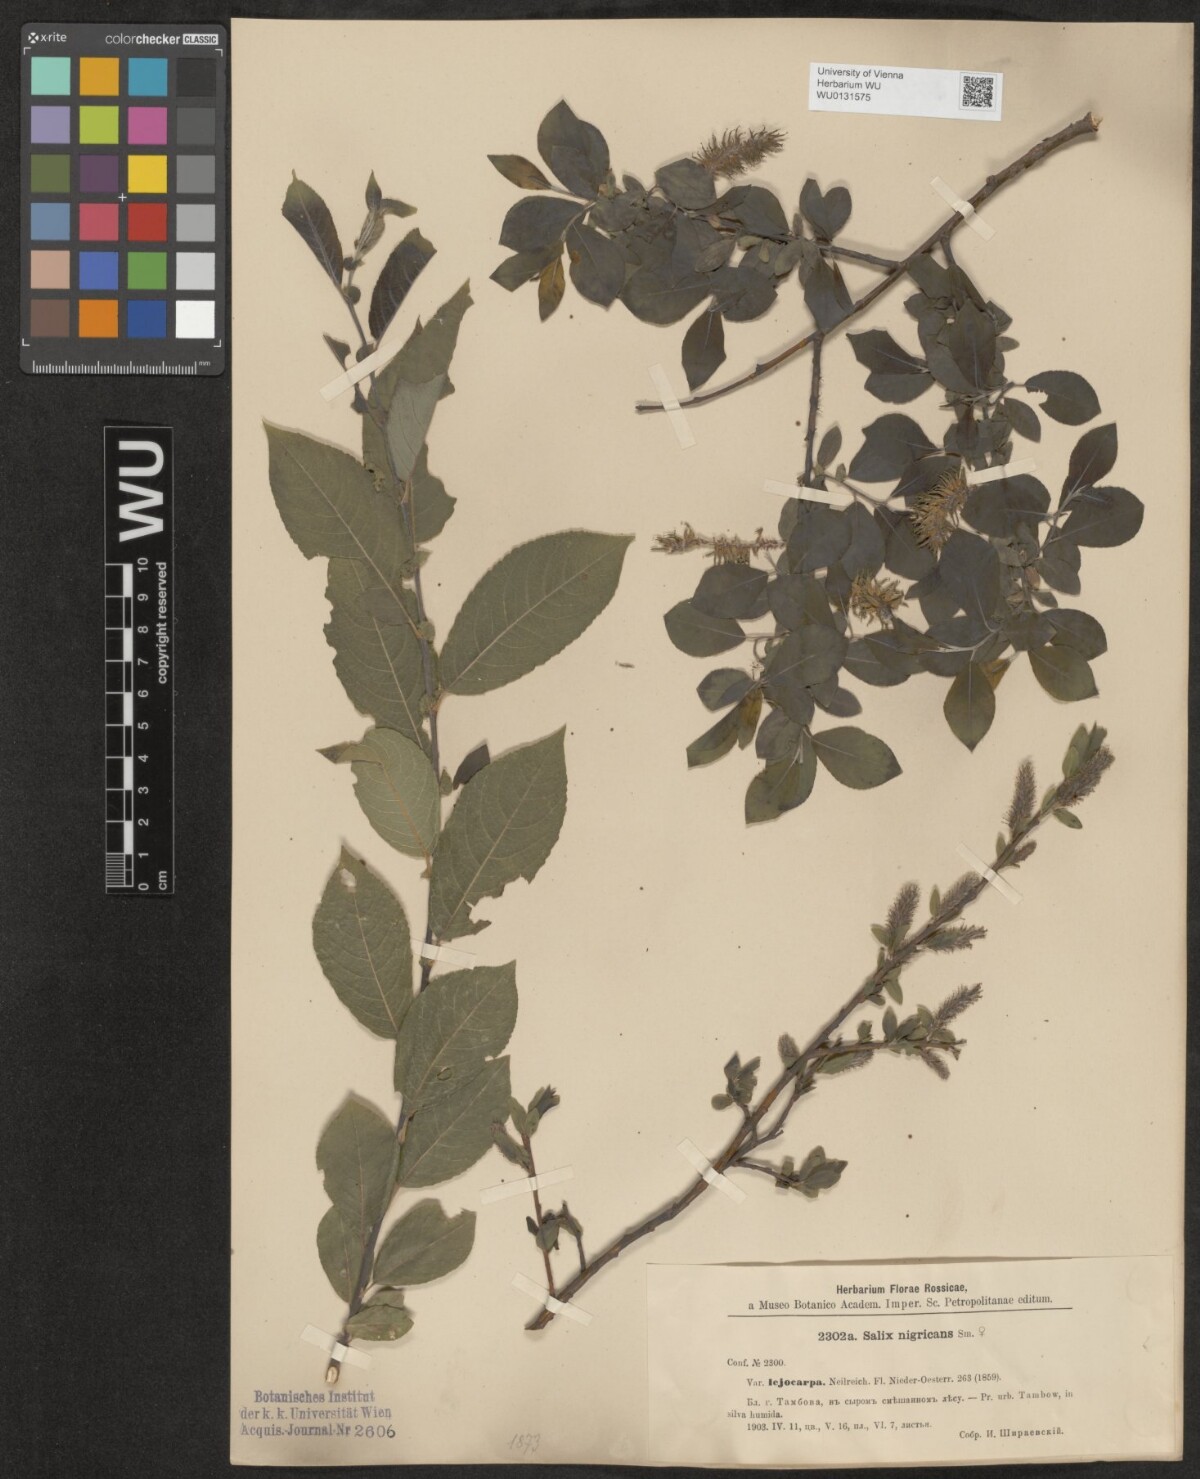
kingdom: Plantae
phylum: Tracheophyta
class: Magnoliopsida
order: Malpighiales
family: Salicaceae
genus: Salix
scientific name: Salix myrsinifolia
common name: Dark-leaved willow
